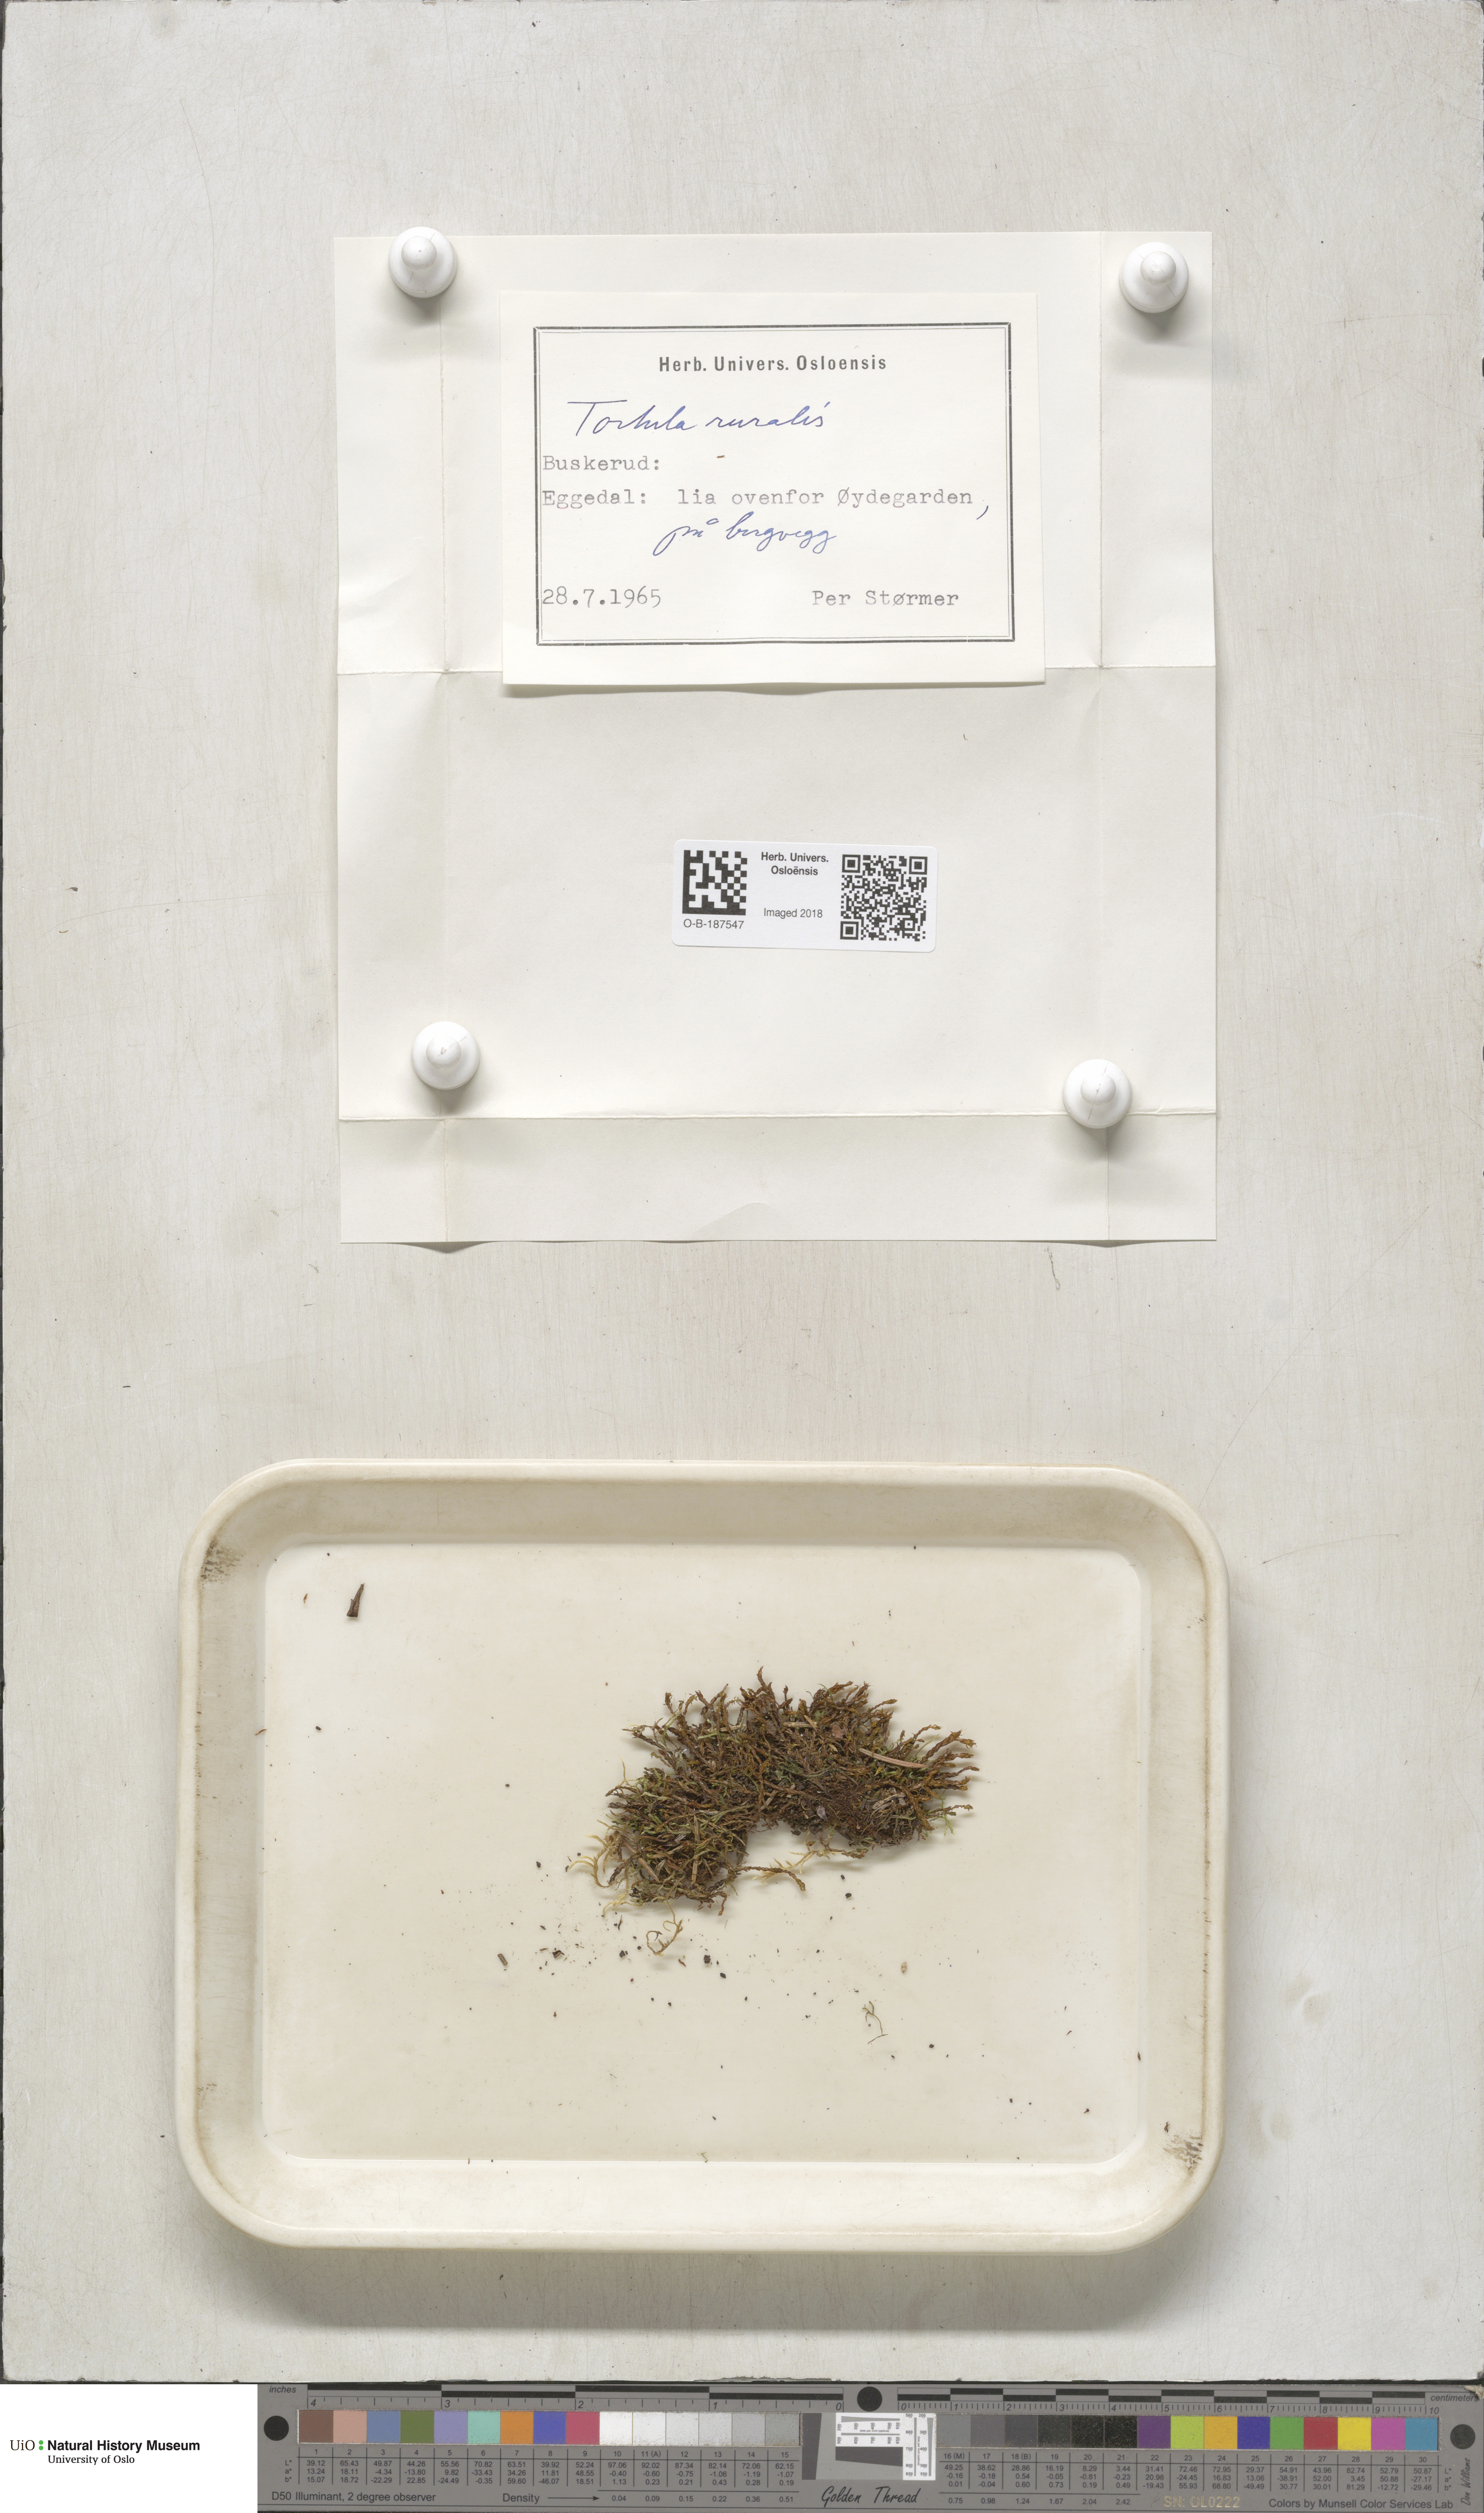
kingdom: Plantae
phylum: Bryophyta
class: Bryopsida
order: Pottiales
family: Pottiaceae
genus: Syntrichia
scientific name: Syntrichia ruralis
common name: Sidewalk screw moss
